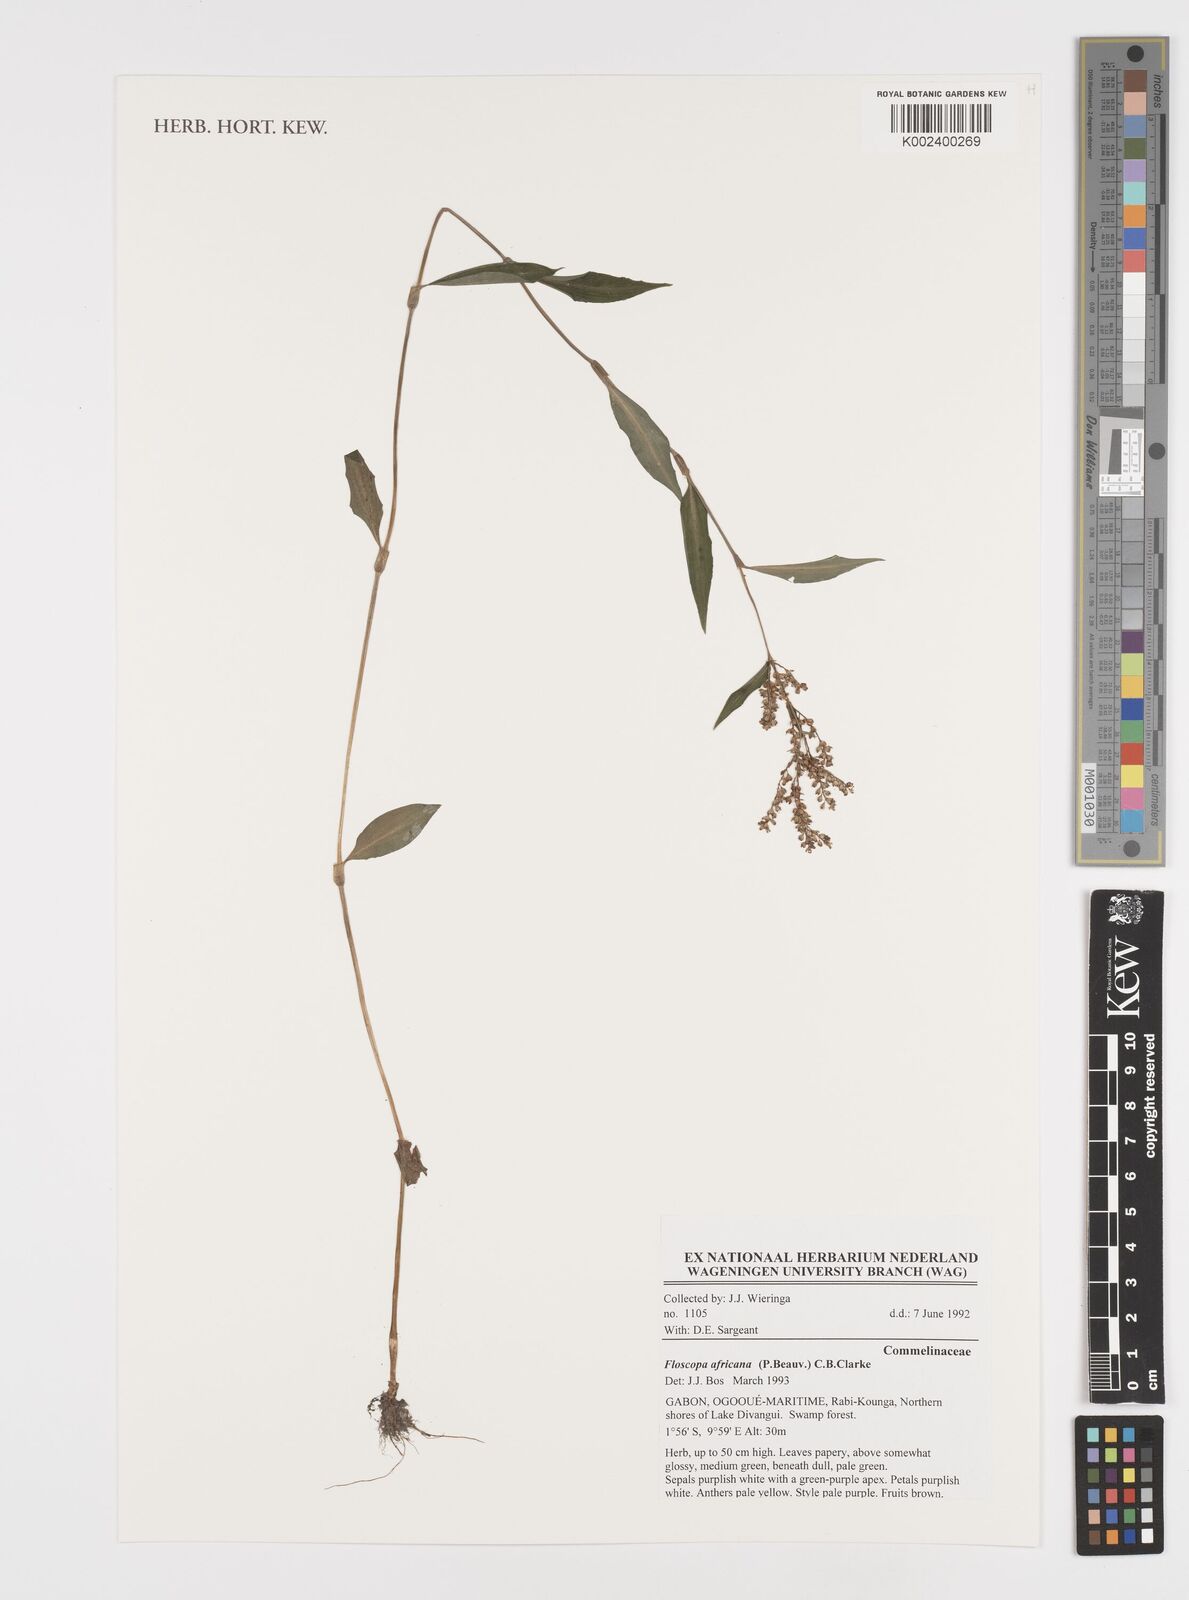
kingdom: Plantae
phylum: Tracheophyta
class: Liliopsida
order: Commelinales
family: Commelinaceae
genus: Floscopa
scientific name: Floscopa africana
